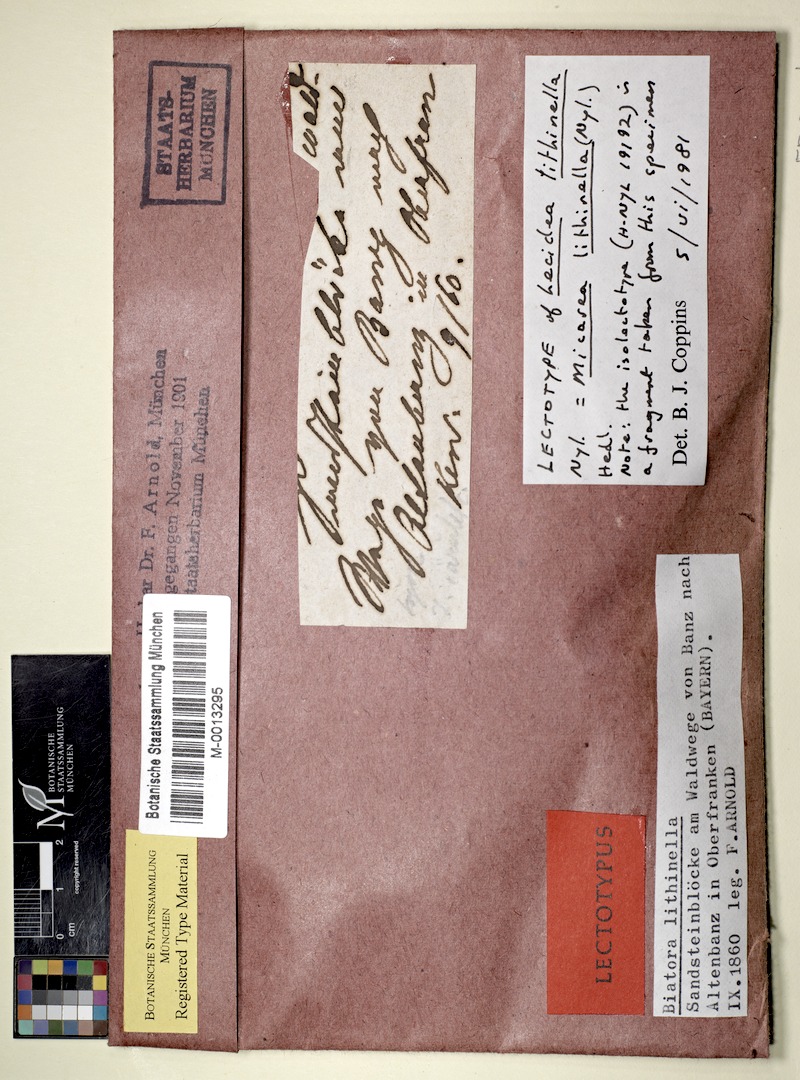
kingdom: Fungi
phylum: Ascomycota
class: Lecanoromycetes
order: Lecanorales
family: Byssolomataceae
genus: Micarea
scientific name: Micarea lithinella
